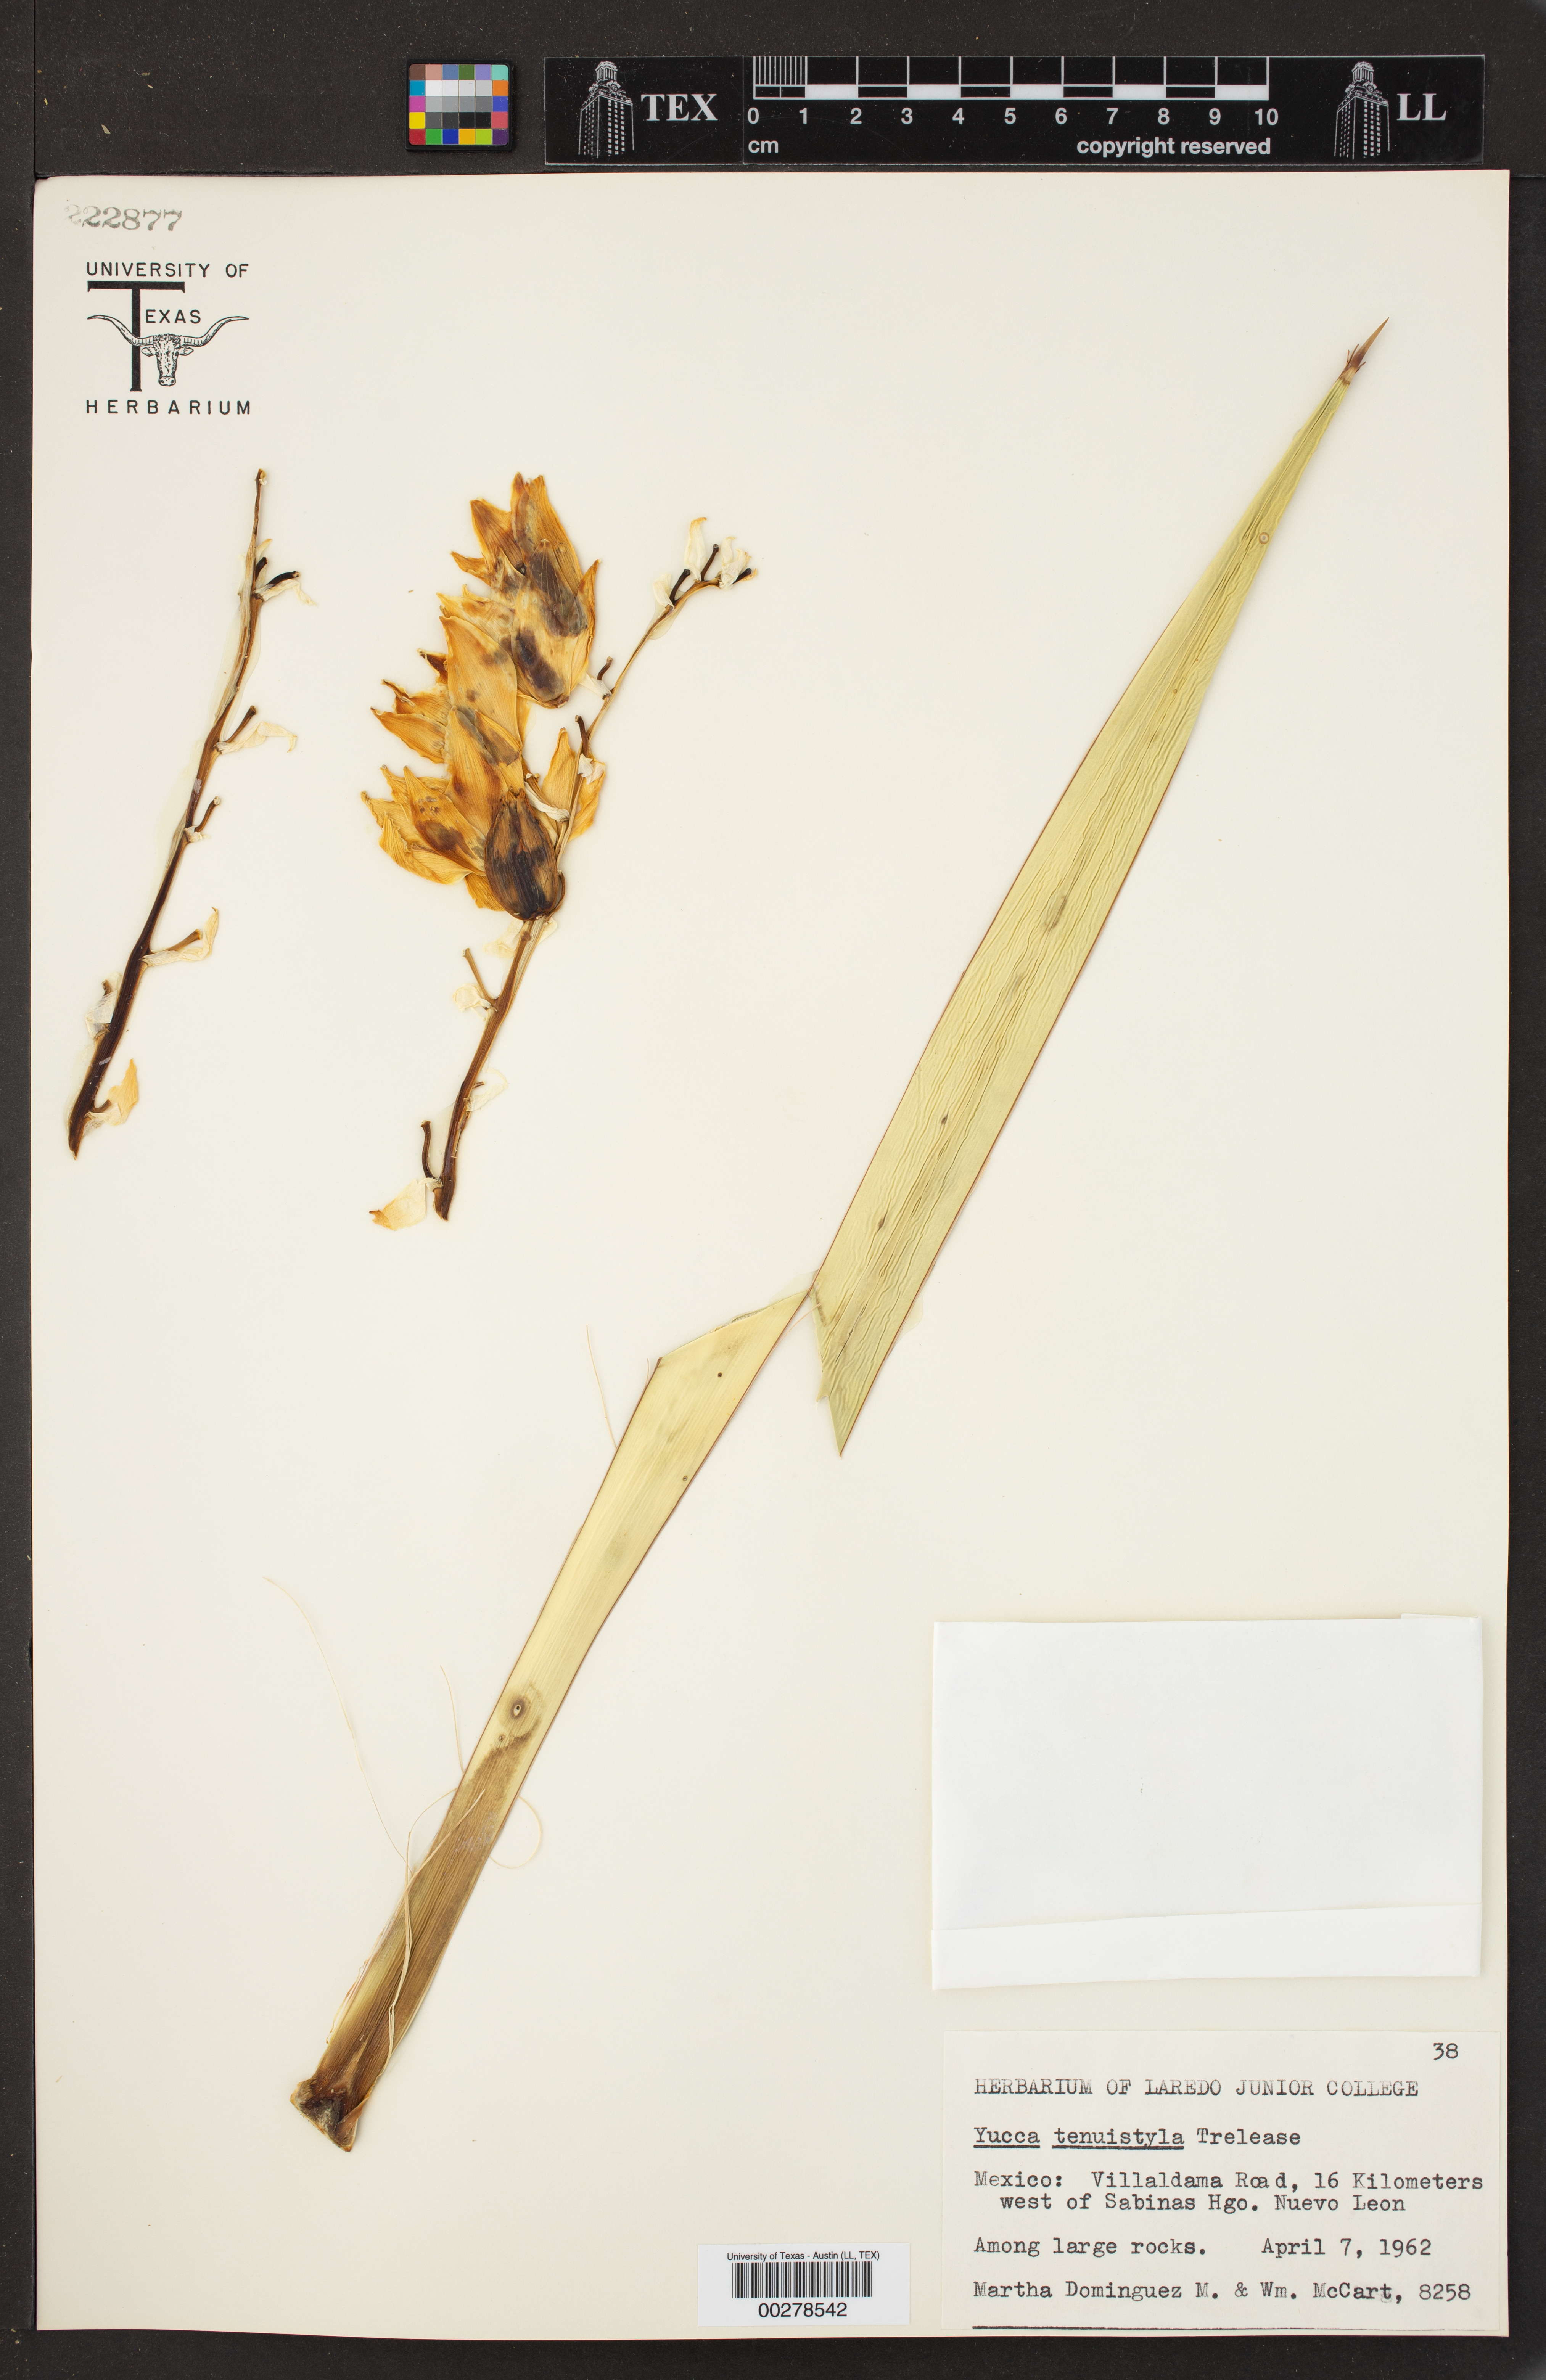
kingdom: Plantae
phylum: Tracheophyta
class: Liliopsida
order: Asparagales
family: Asparagaceae
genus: Yucca
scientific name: Yucca tenuistyla
